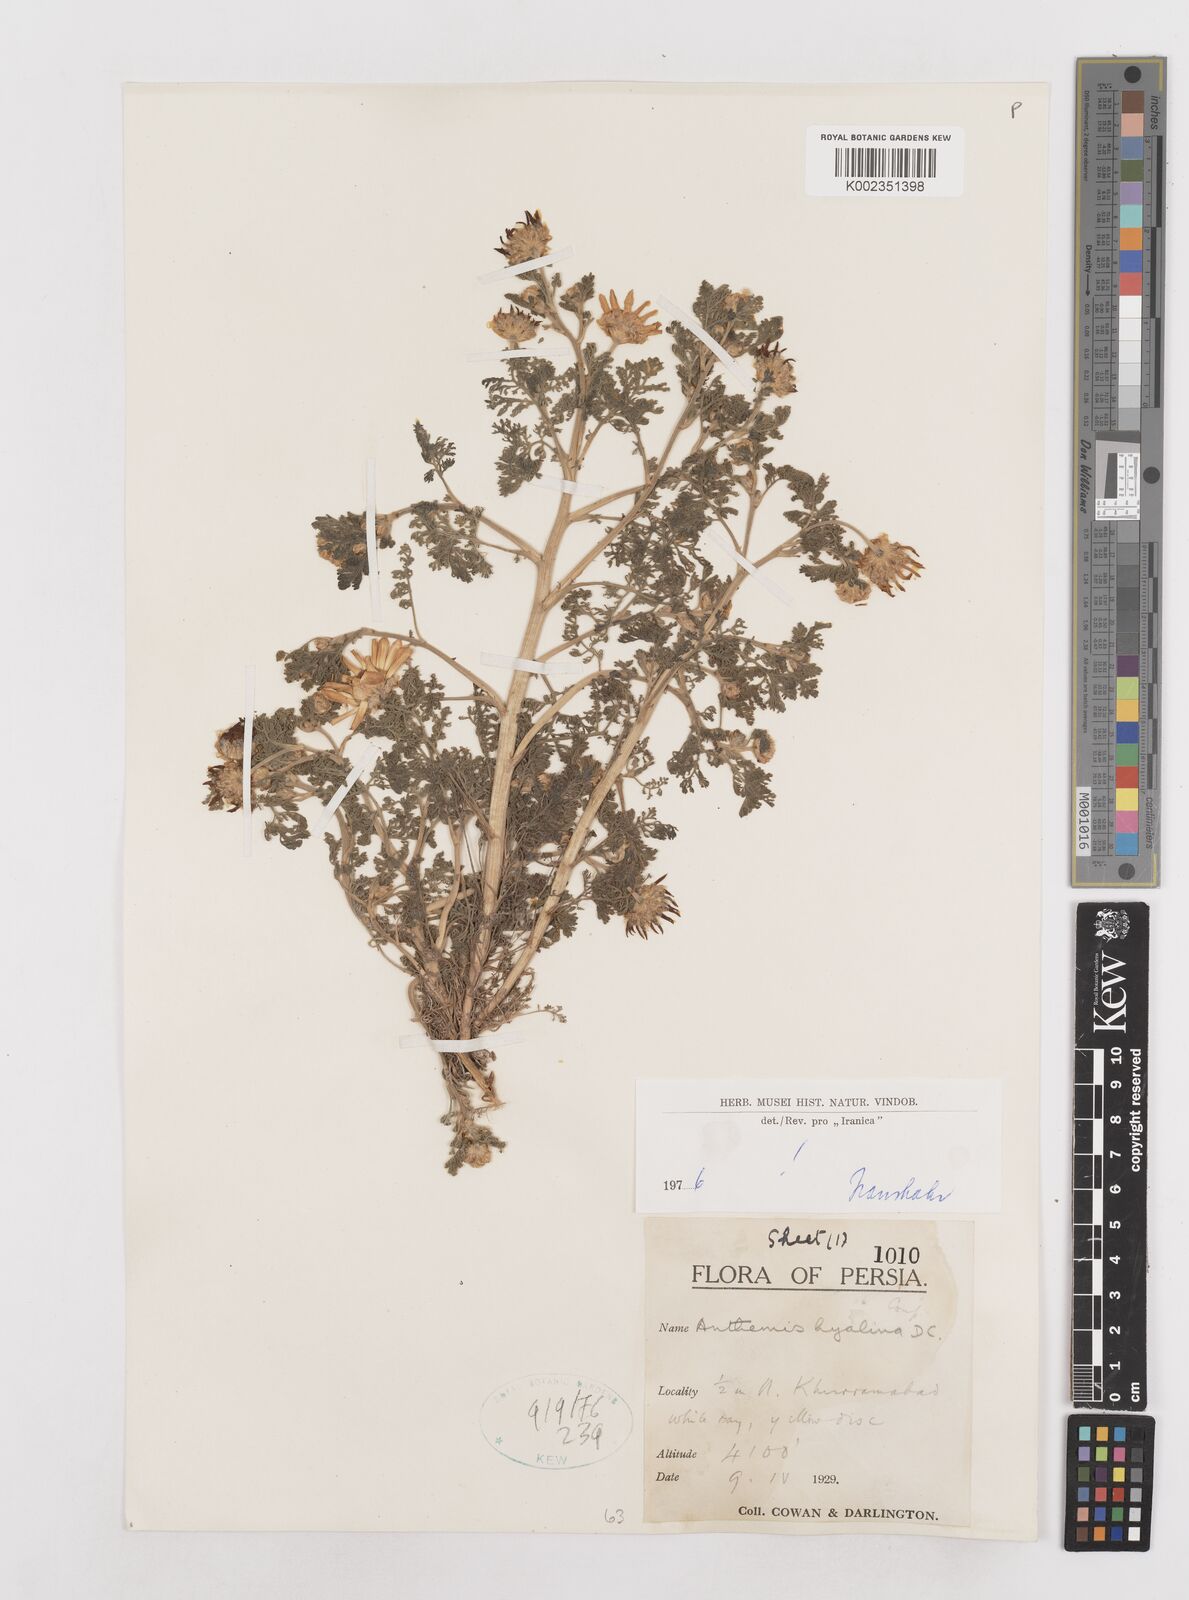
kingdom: Plantae
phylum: Tracheophyta
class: Magnoliopsida
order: Asterales
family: Asteraceae
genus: Anthemis
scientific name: Anthemis hyalina
